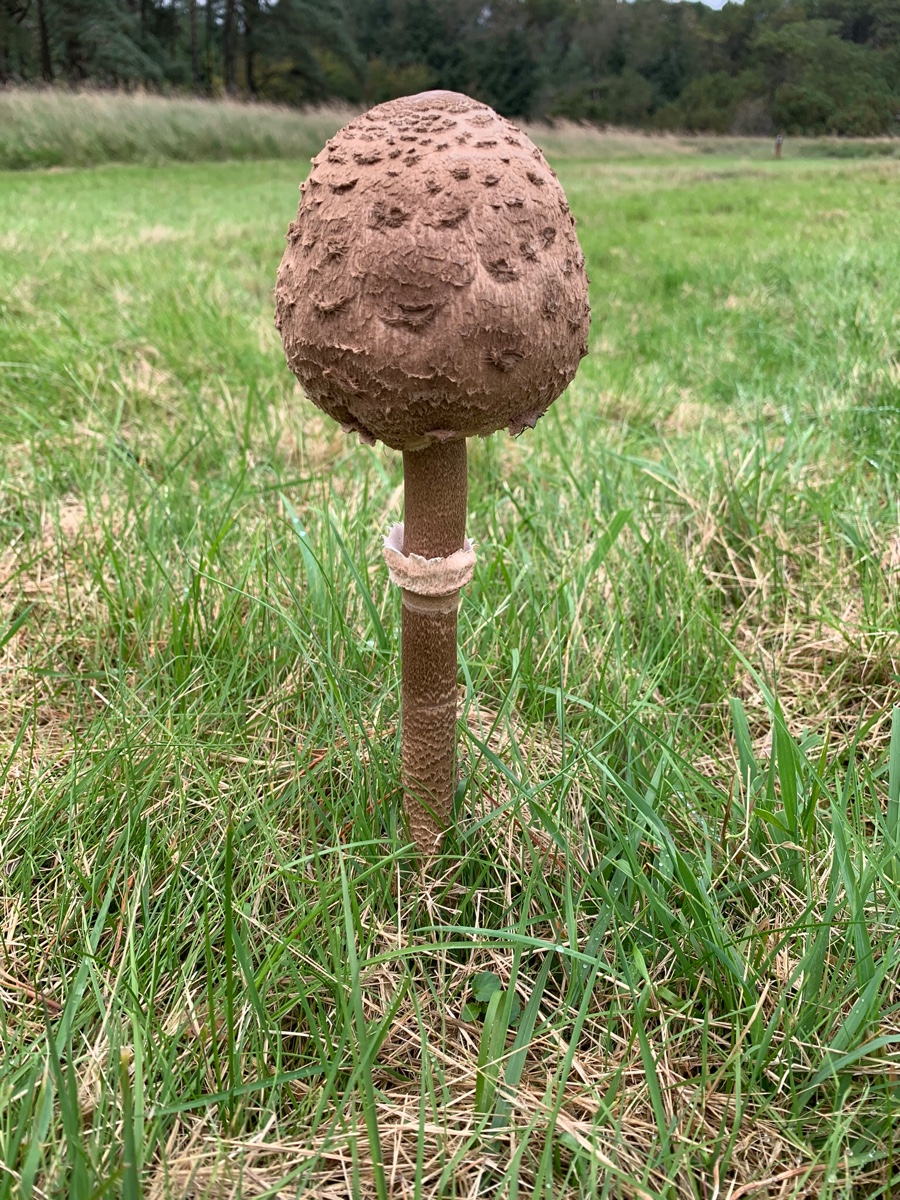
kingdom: Fungi
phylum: Basidiomycota
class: Agaricomycetes
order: Agaricales
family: Agaricaceae
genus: Macrolepiota
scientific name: Macrolepiota procera
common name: stor kæmpeparasolhat
